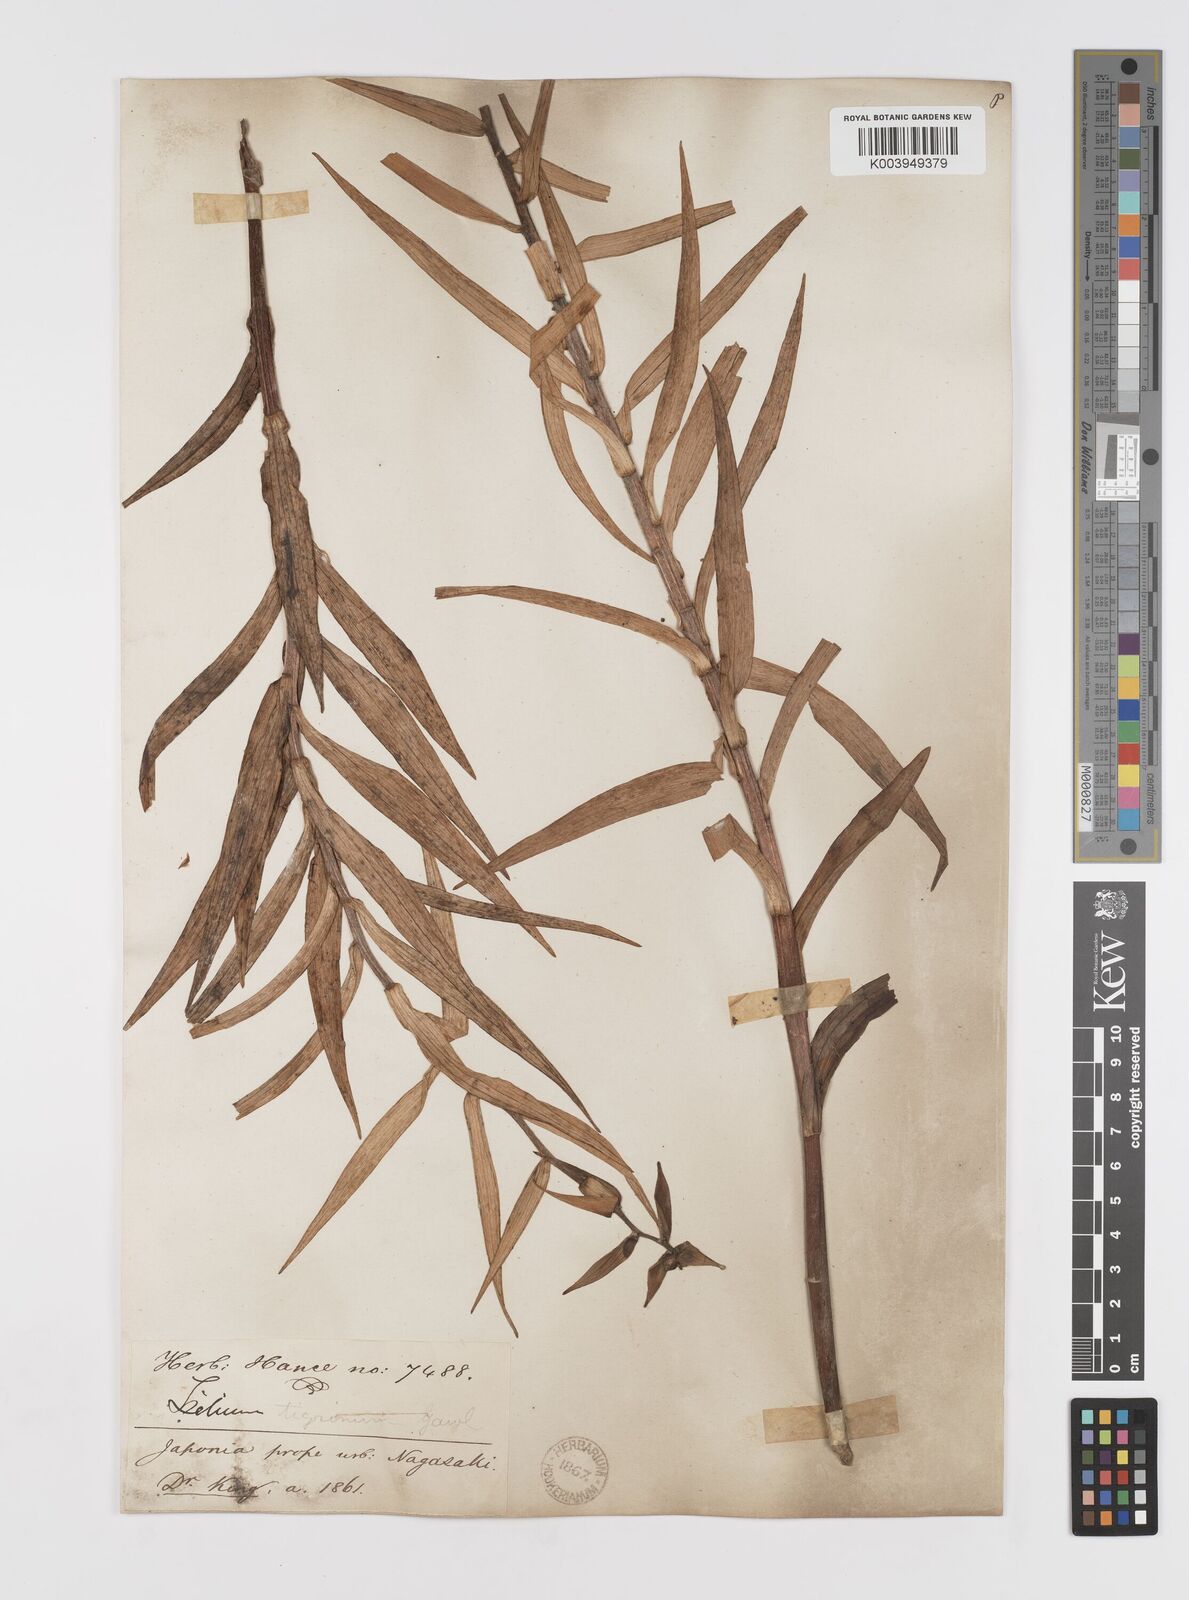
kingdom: Plantae
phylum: Tracheophyta
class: Liliopsida
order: Liliales
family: Liliaceae
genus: Lilium
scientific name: Lilium lancifolium
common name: Tiger lily
